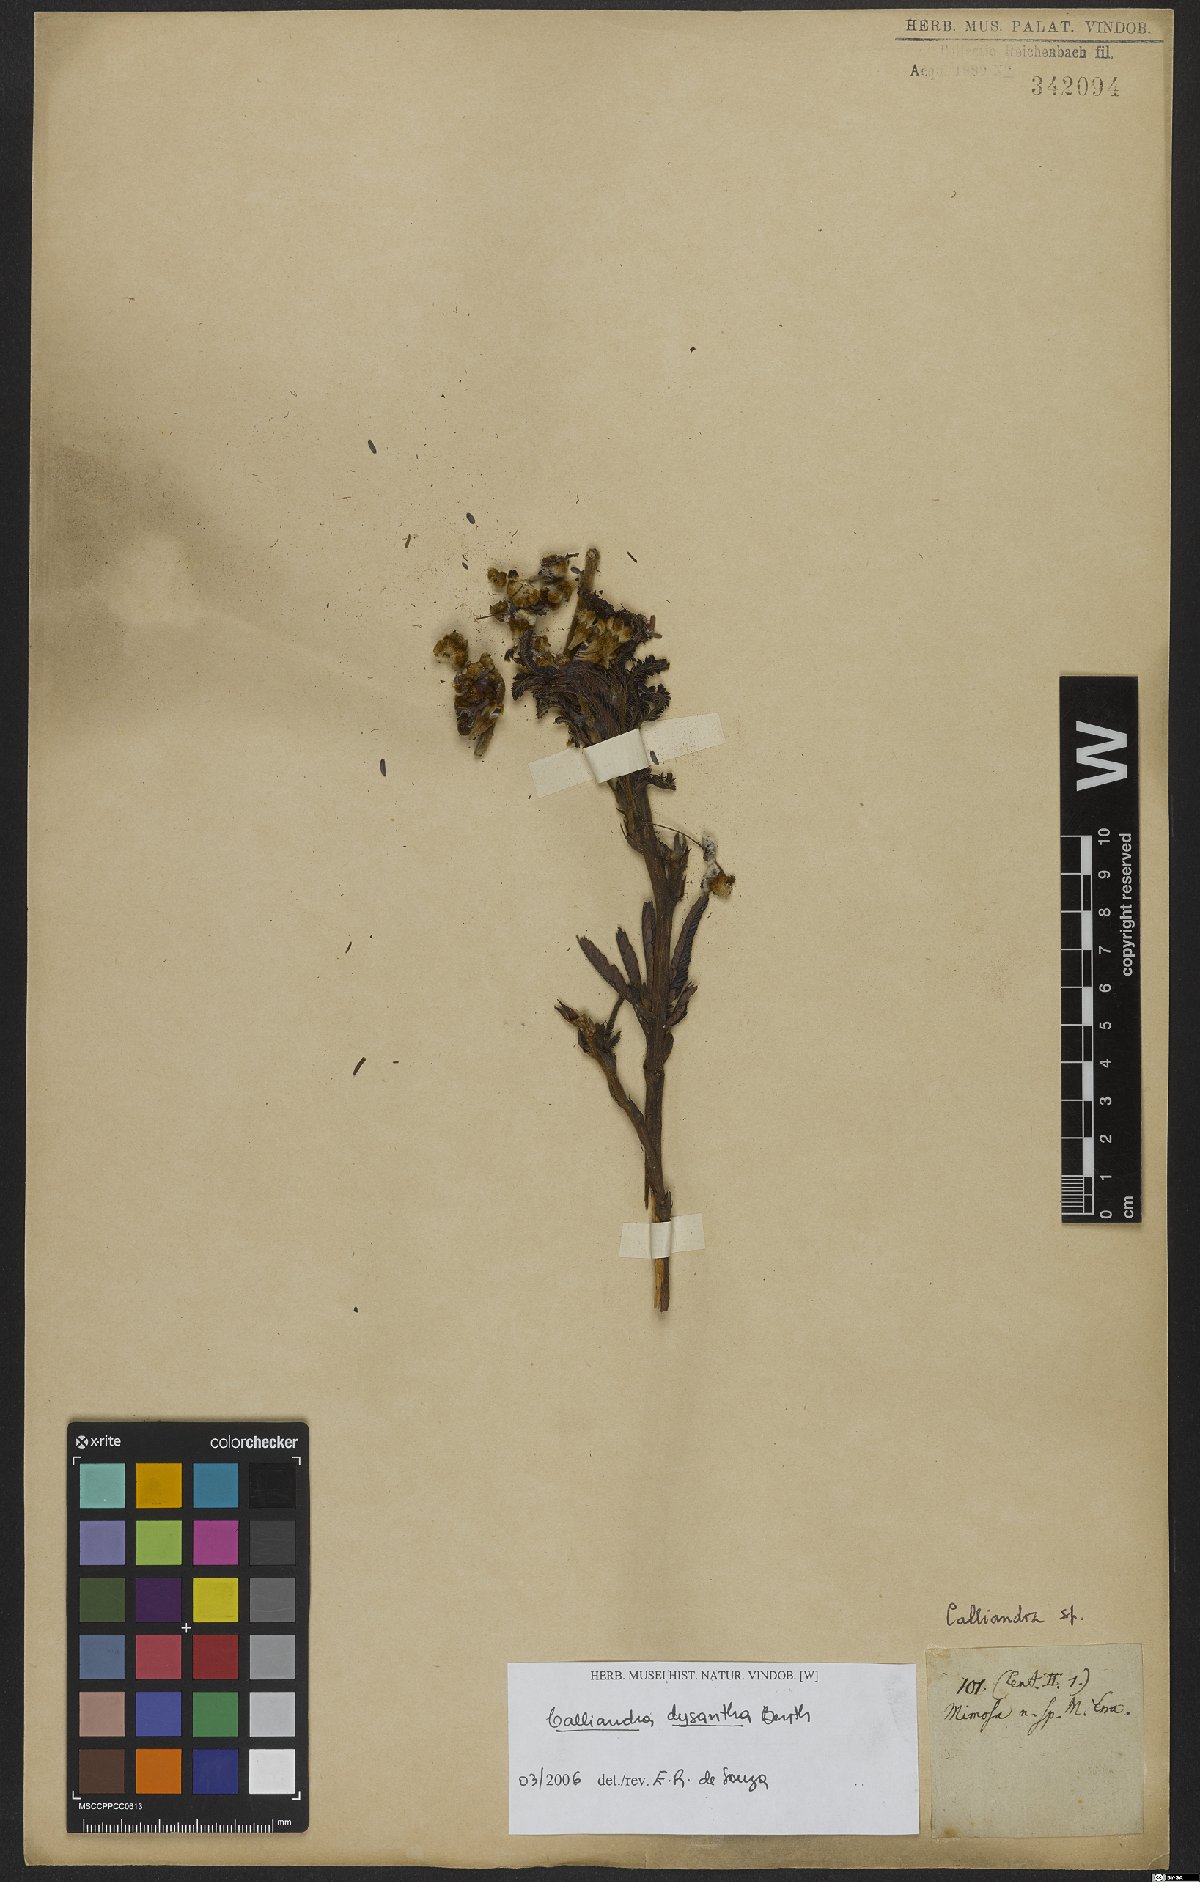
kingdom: Plantae
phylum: Tracheophyta
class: Magnoliopsida
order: Fabales
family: Fabaceae
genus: Calliandra
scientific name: Calliandra dysantha
